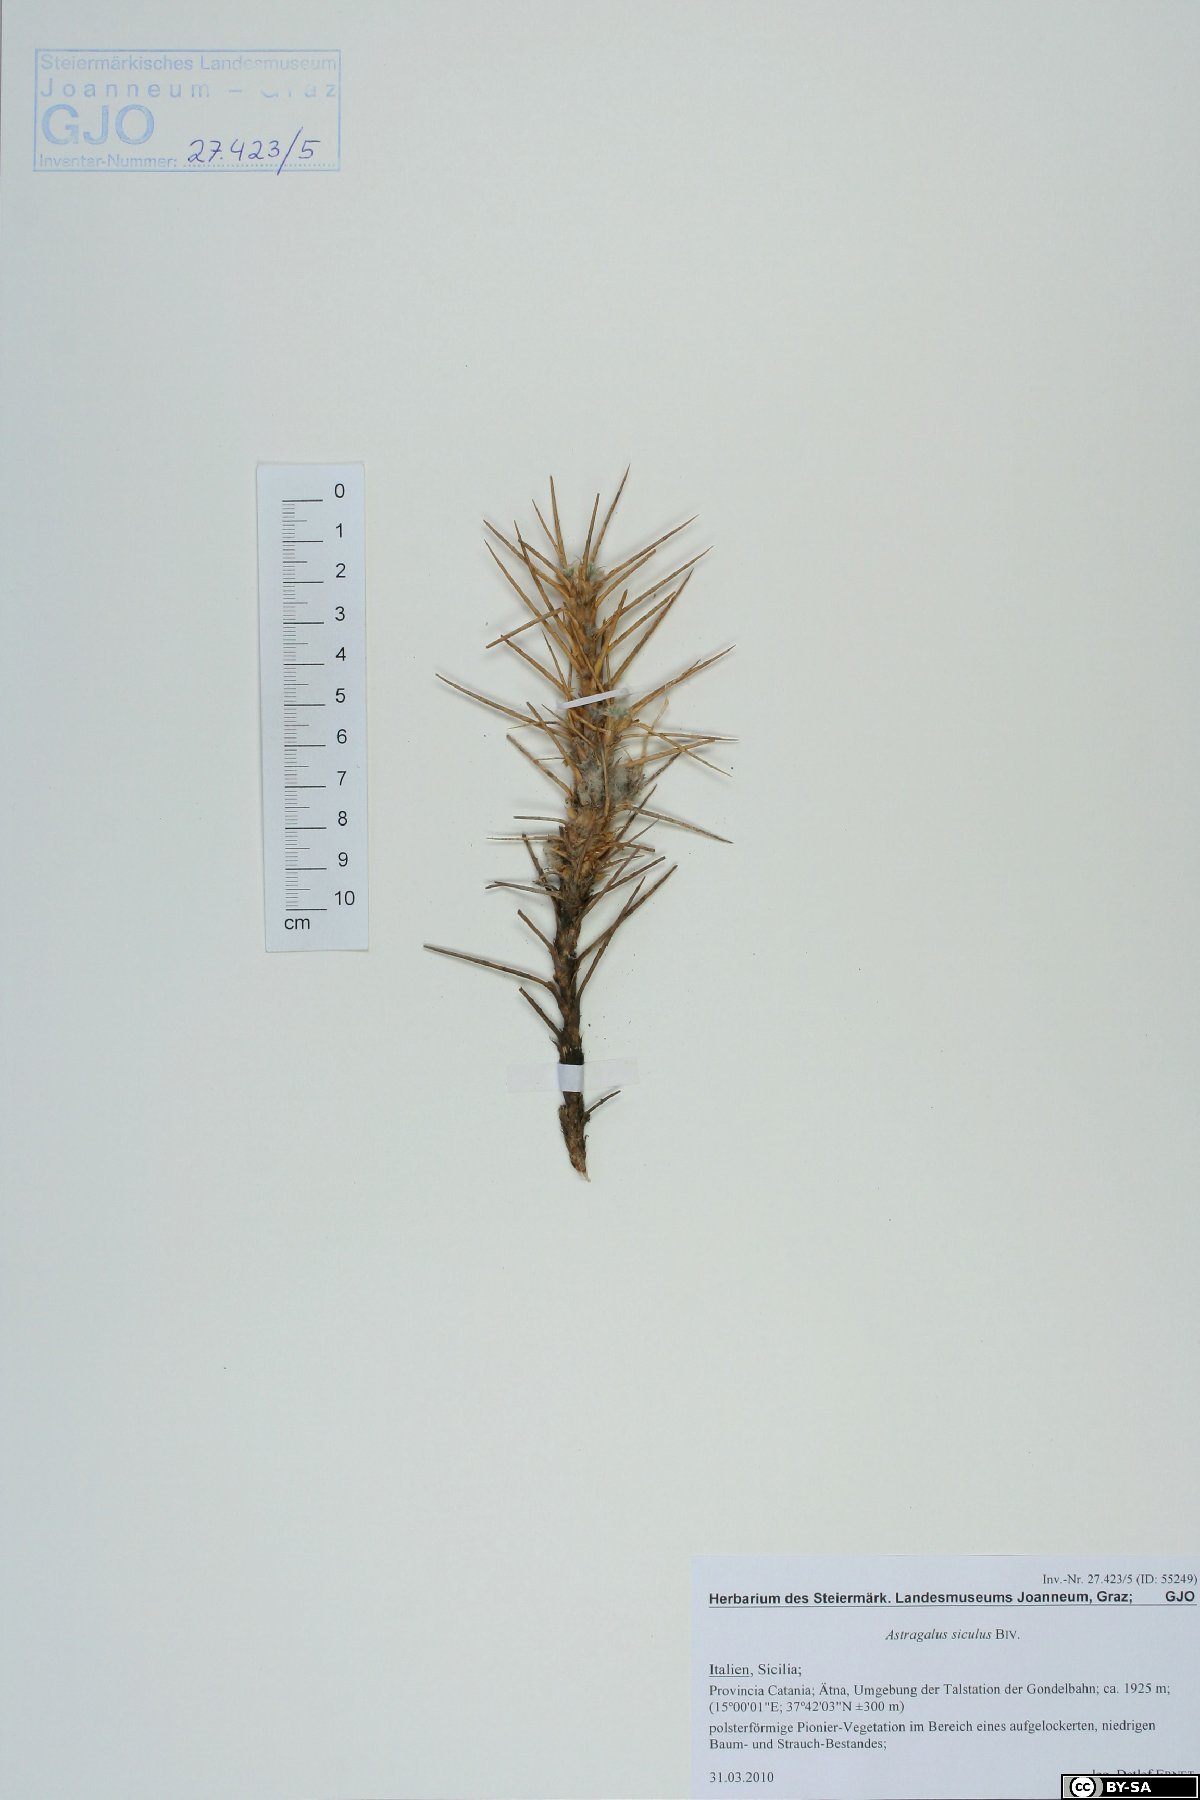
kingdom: Plantae
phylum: Tracheophyta
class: Magnoliopsida
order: Fabales
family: Fabaceae
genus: Astragalus
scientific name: Astragalus siculus
